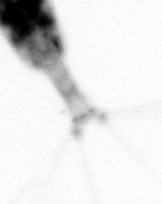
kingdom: Animalia
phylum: Arthropoda
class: Copepoda
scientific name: Copepoda
